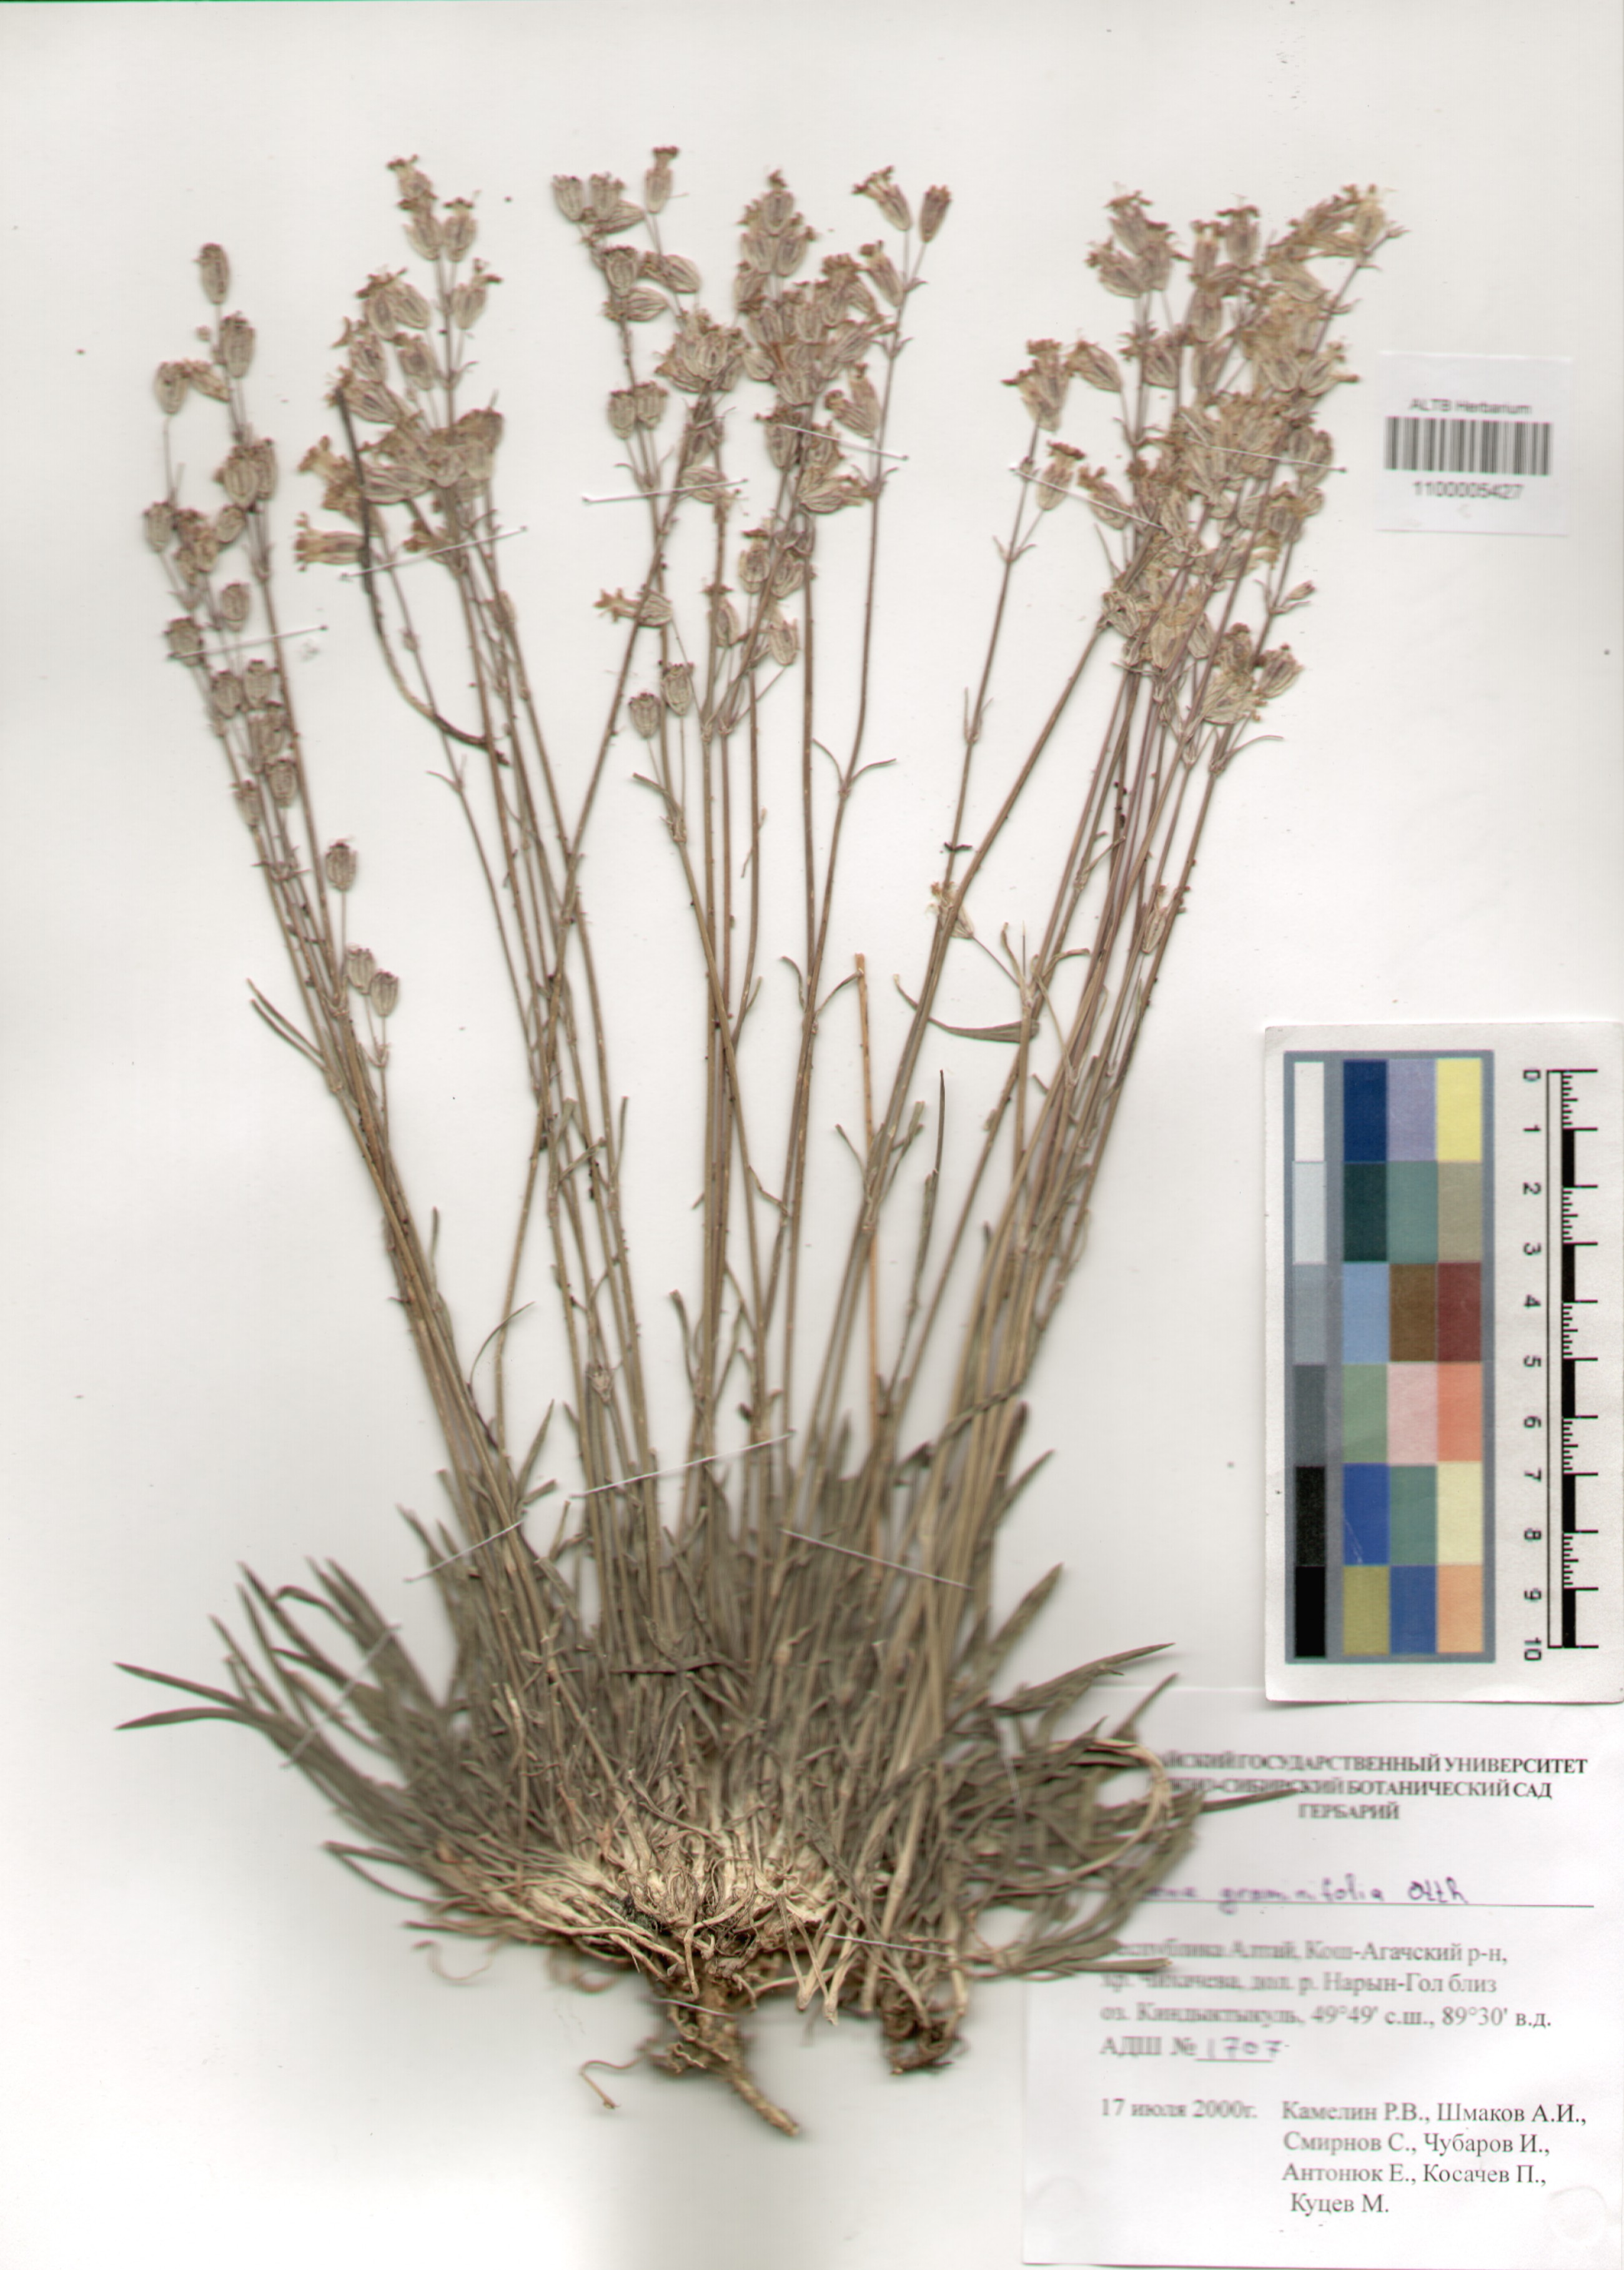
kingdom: Plantae
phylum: Tracheophyta
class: Magnoliopsida
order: Caryophyllales
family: Caryophyllaceae
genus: Silene
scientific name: Silene graminifolia
